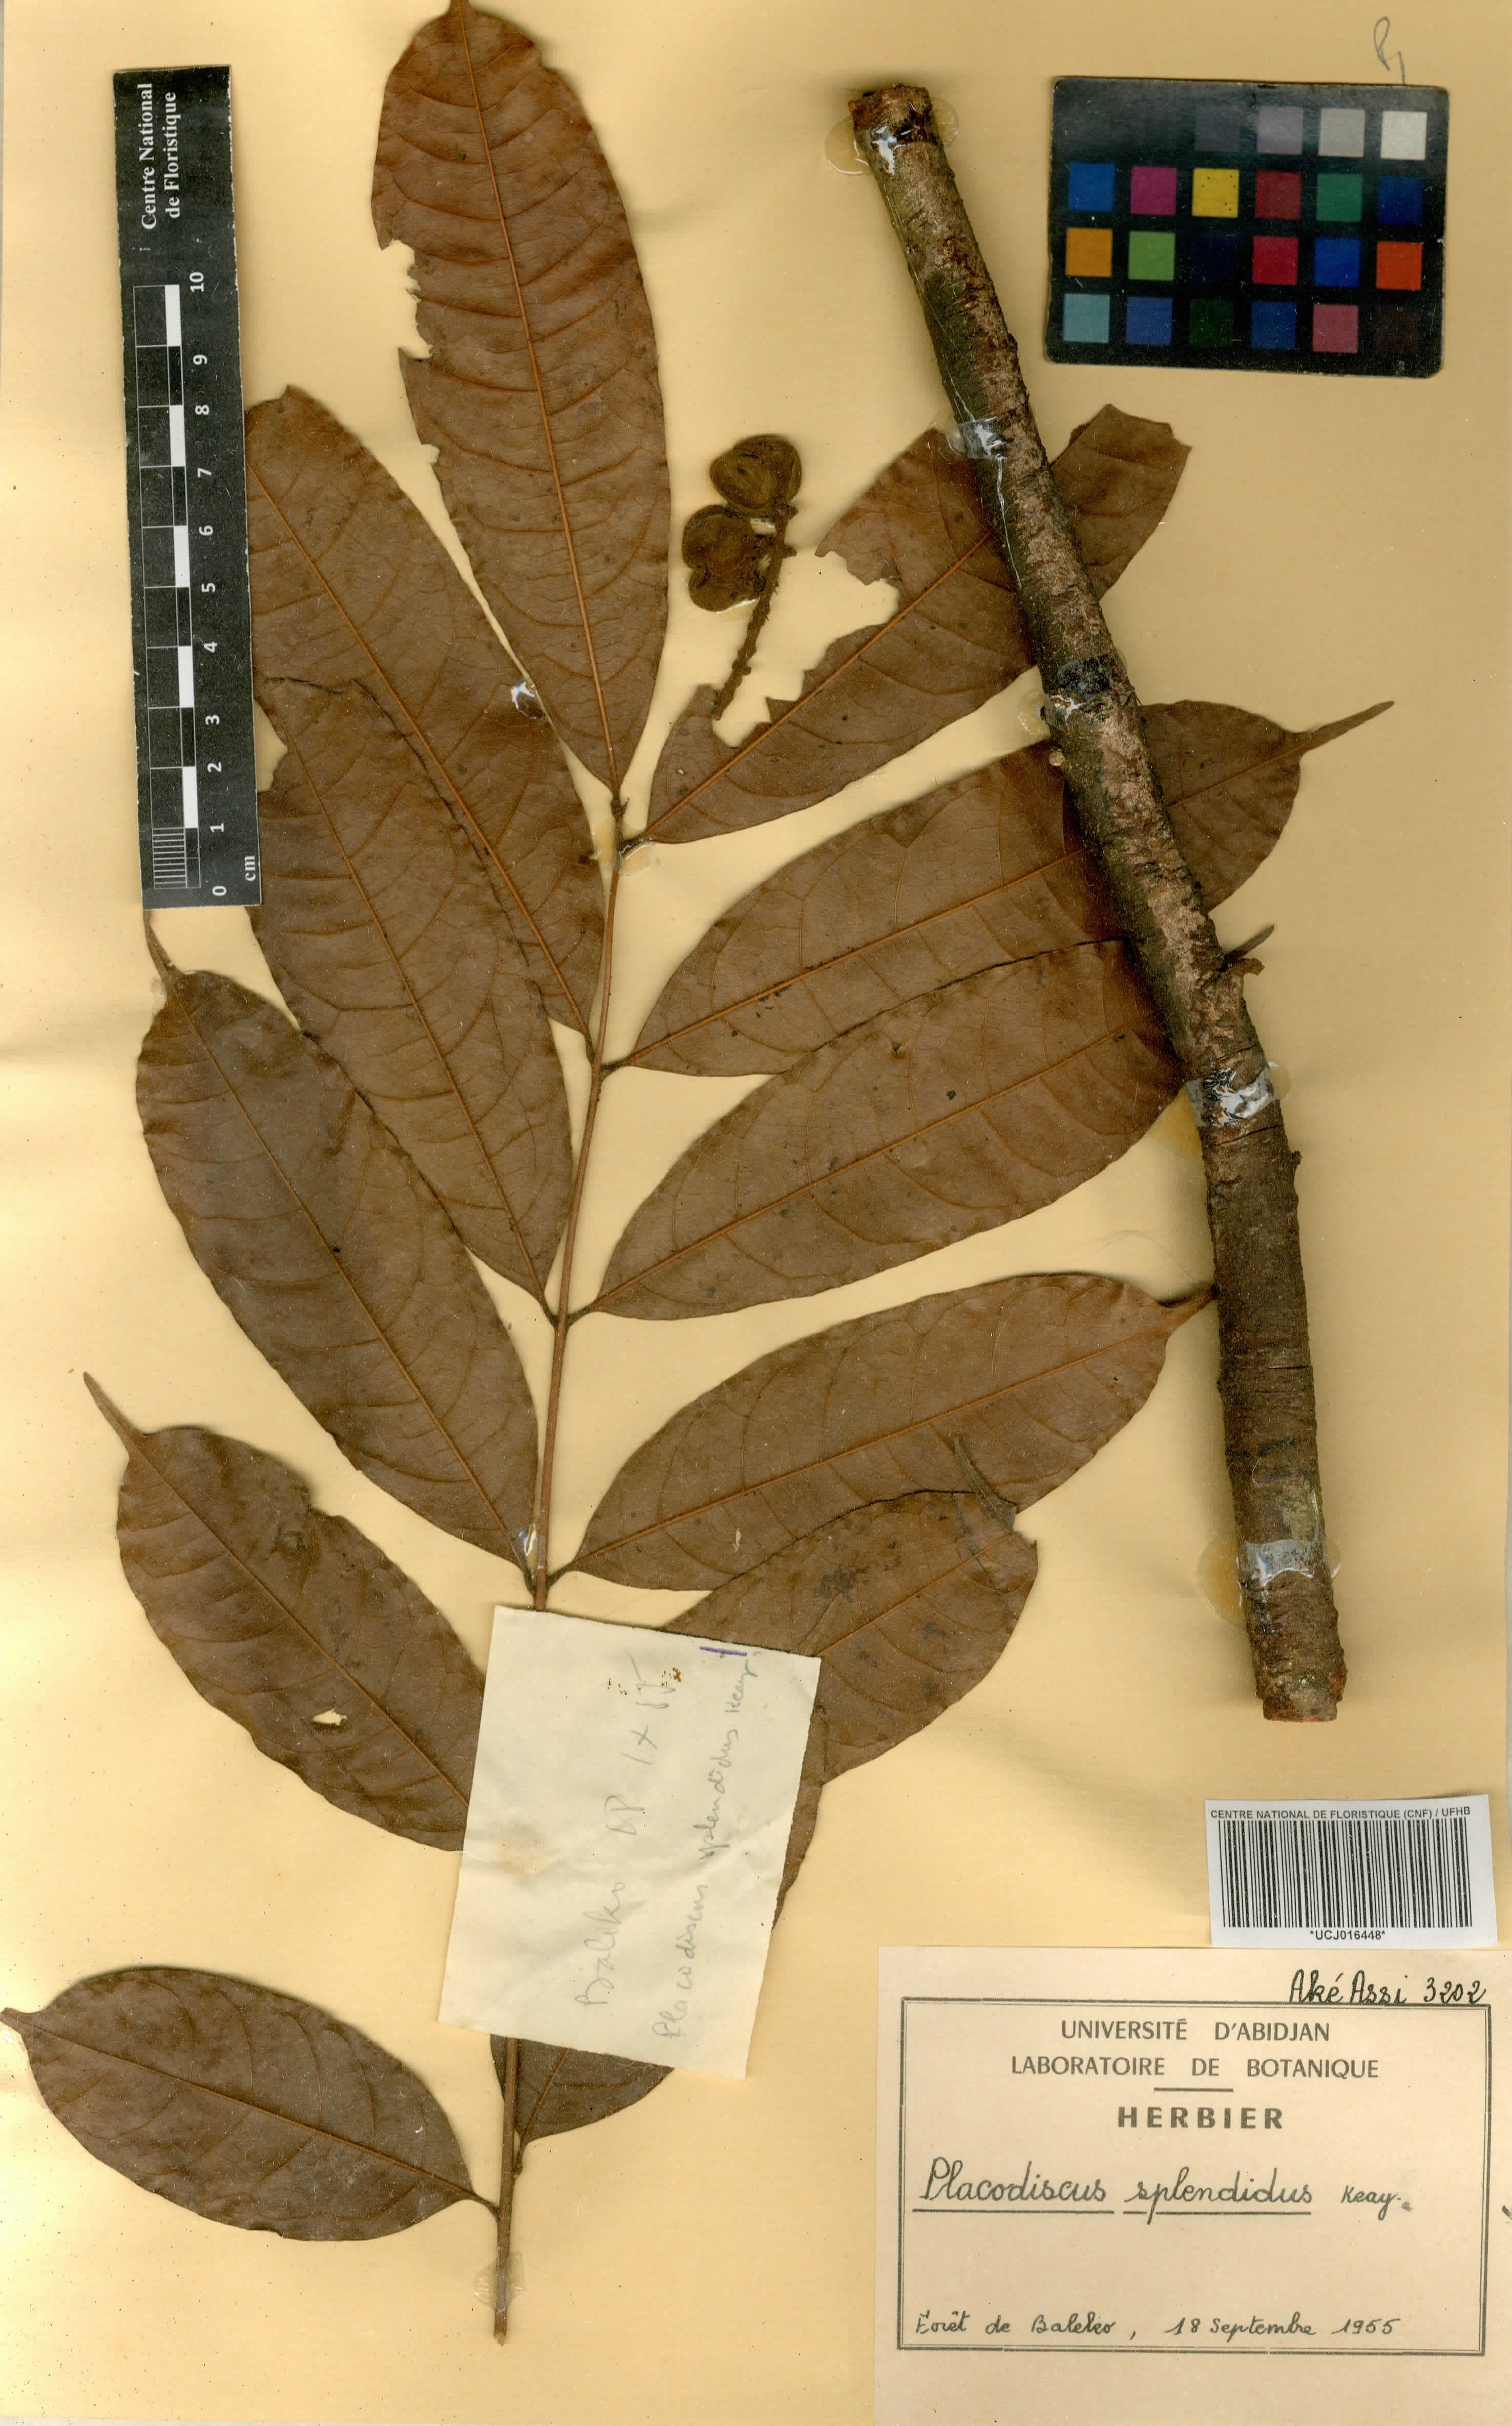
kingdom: Plantae
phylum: Tracheophyta
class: Magnoliopsida
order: Sapindales
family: Sapindaceae
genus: Placodiscus
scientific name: Placodiscus splendidus
